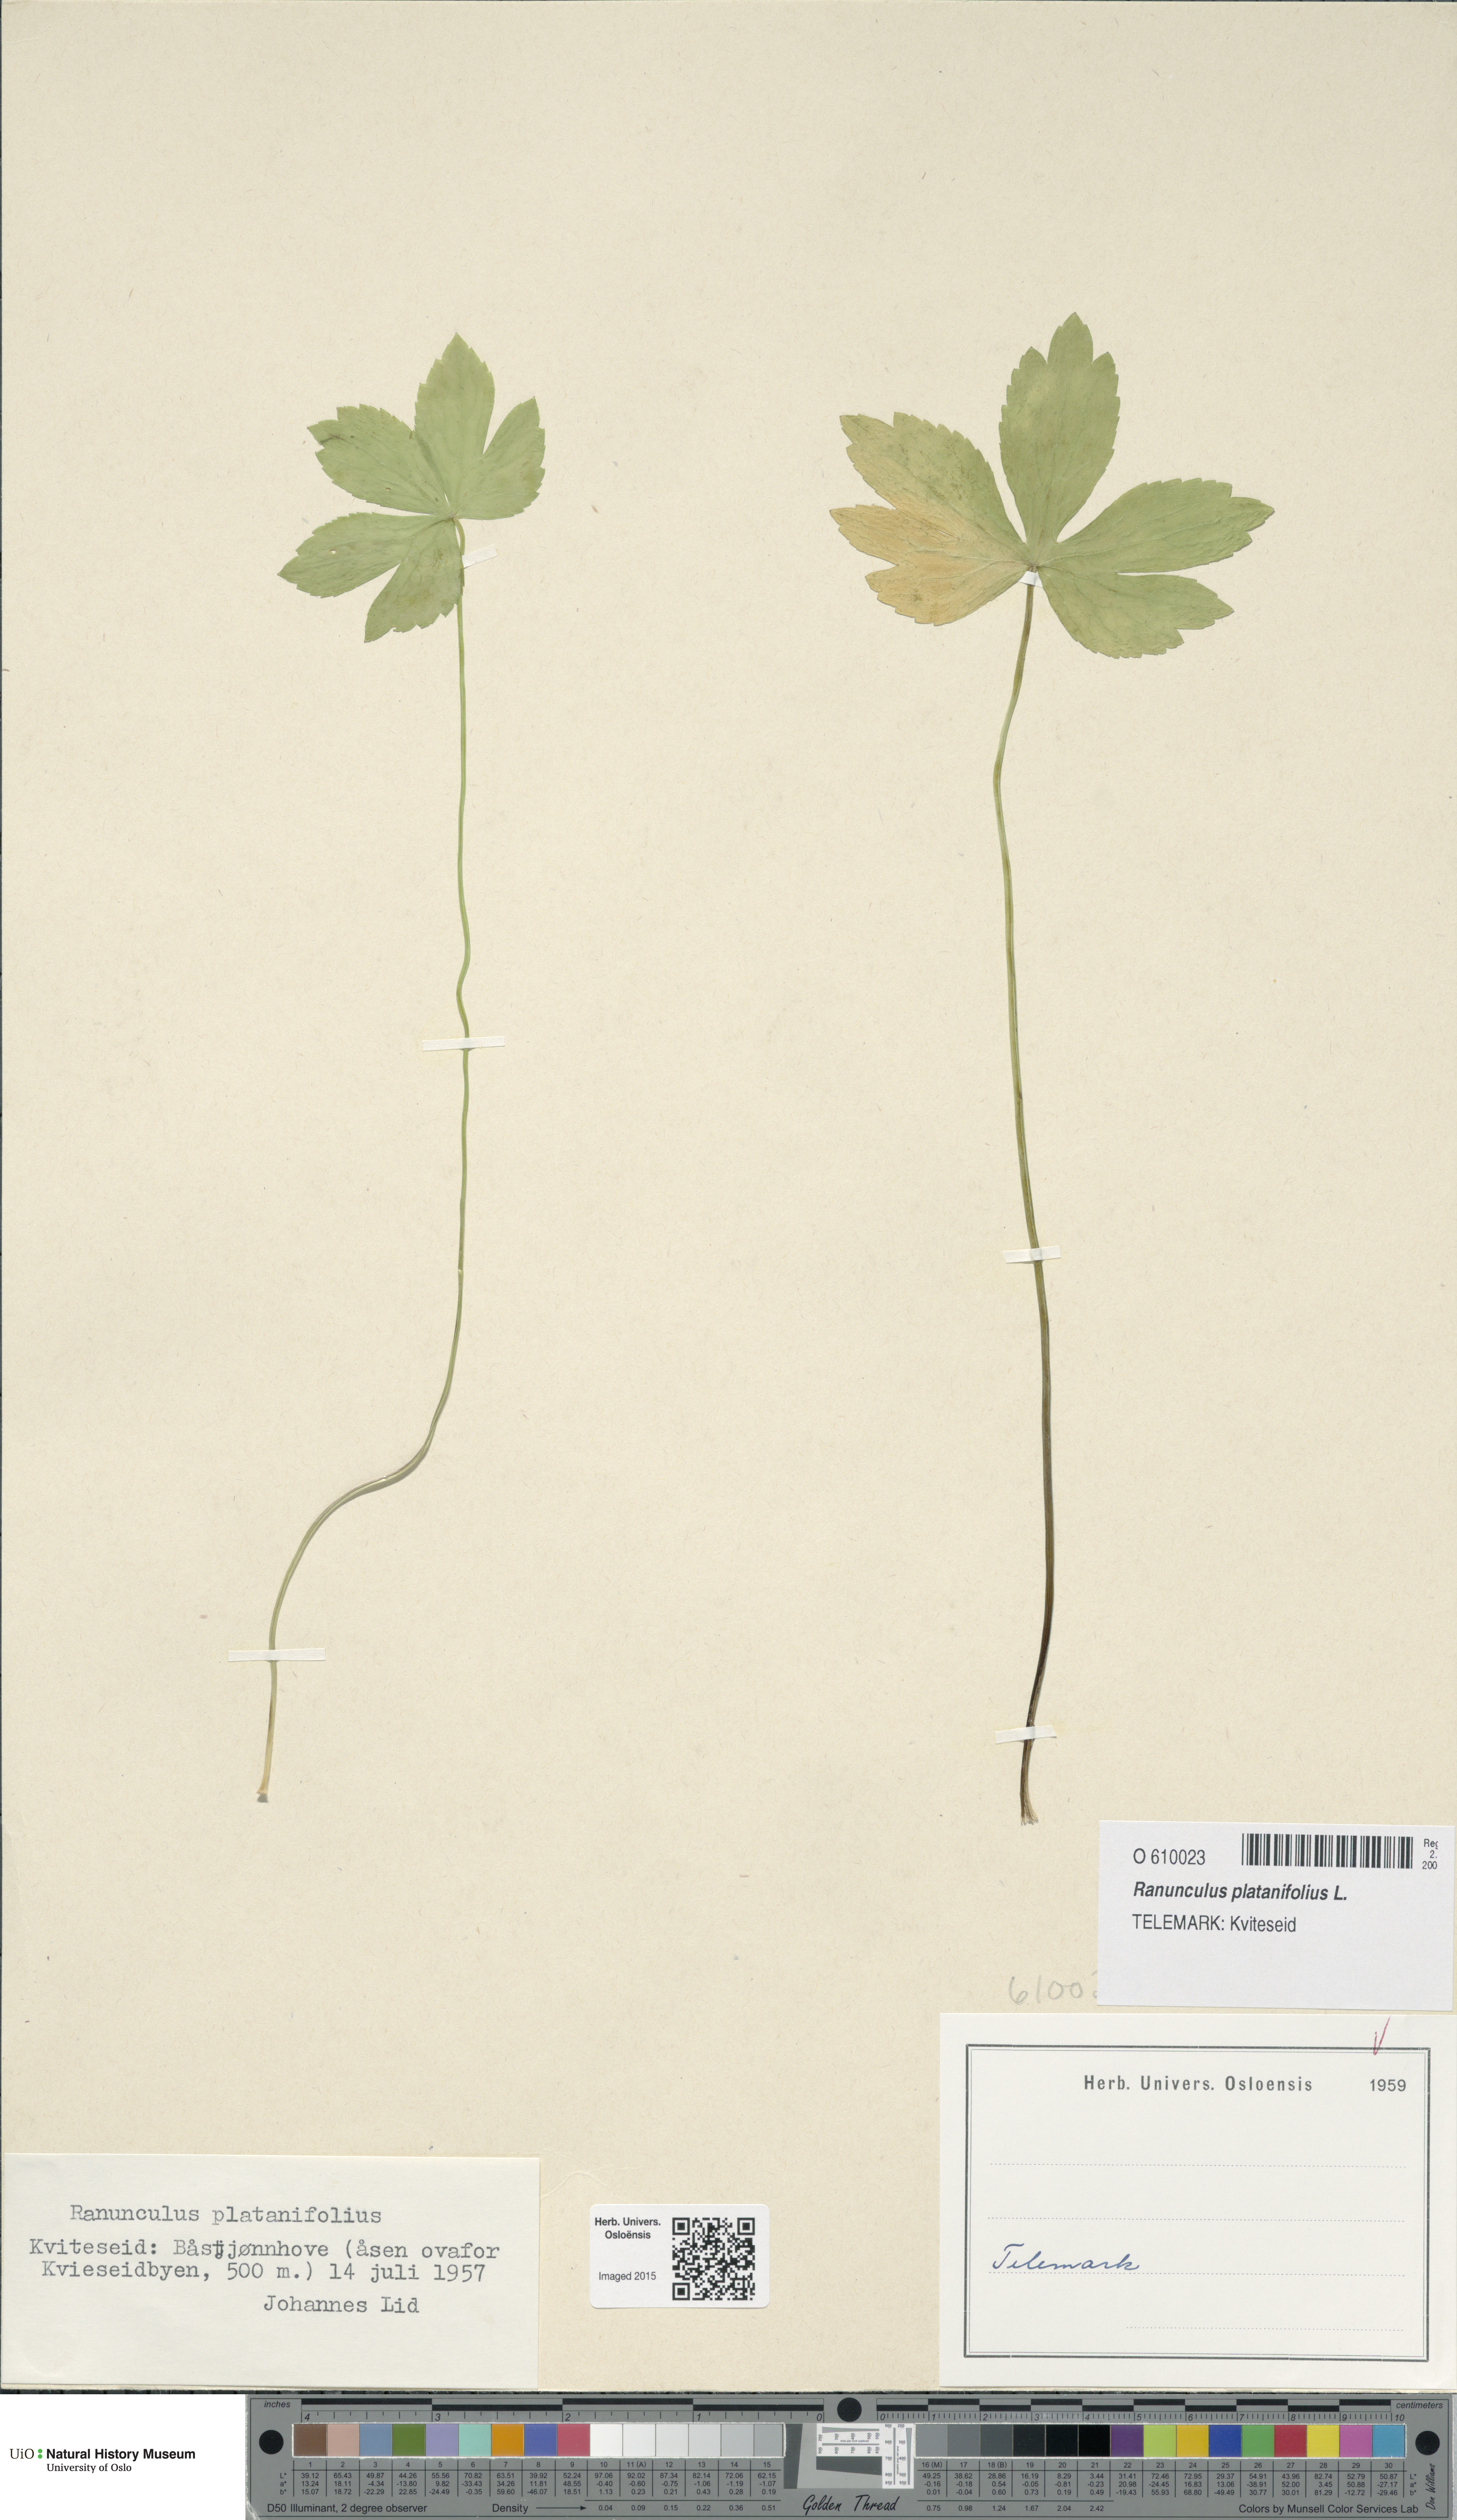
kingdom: Plantae
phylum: Tracheophyta
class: Magnoliopsida
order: Ranunculales
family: Ranunculaceae
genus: Ranunculus
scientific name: Ranunculus platanifolius
